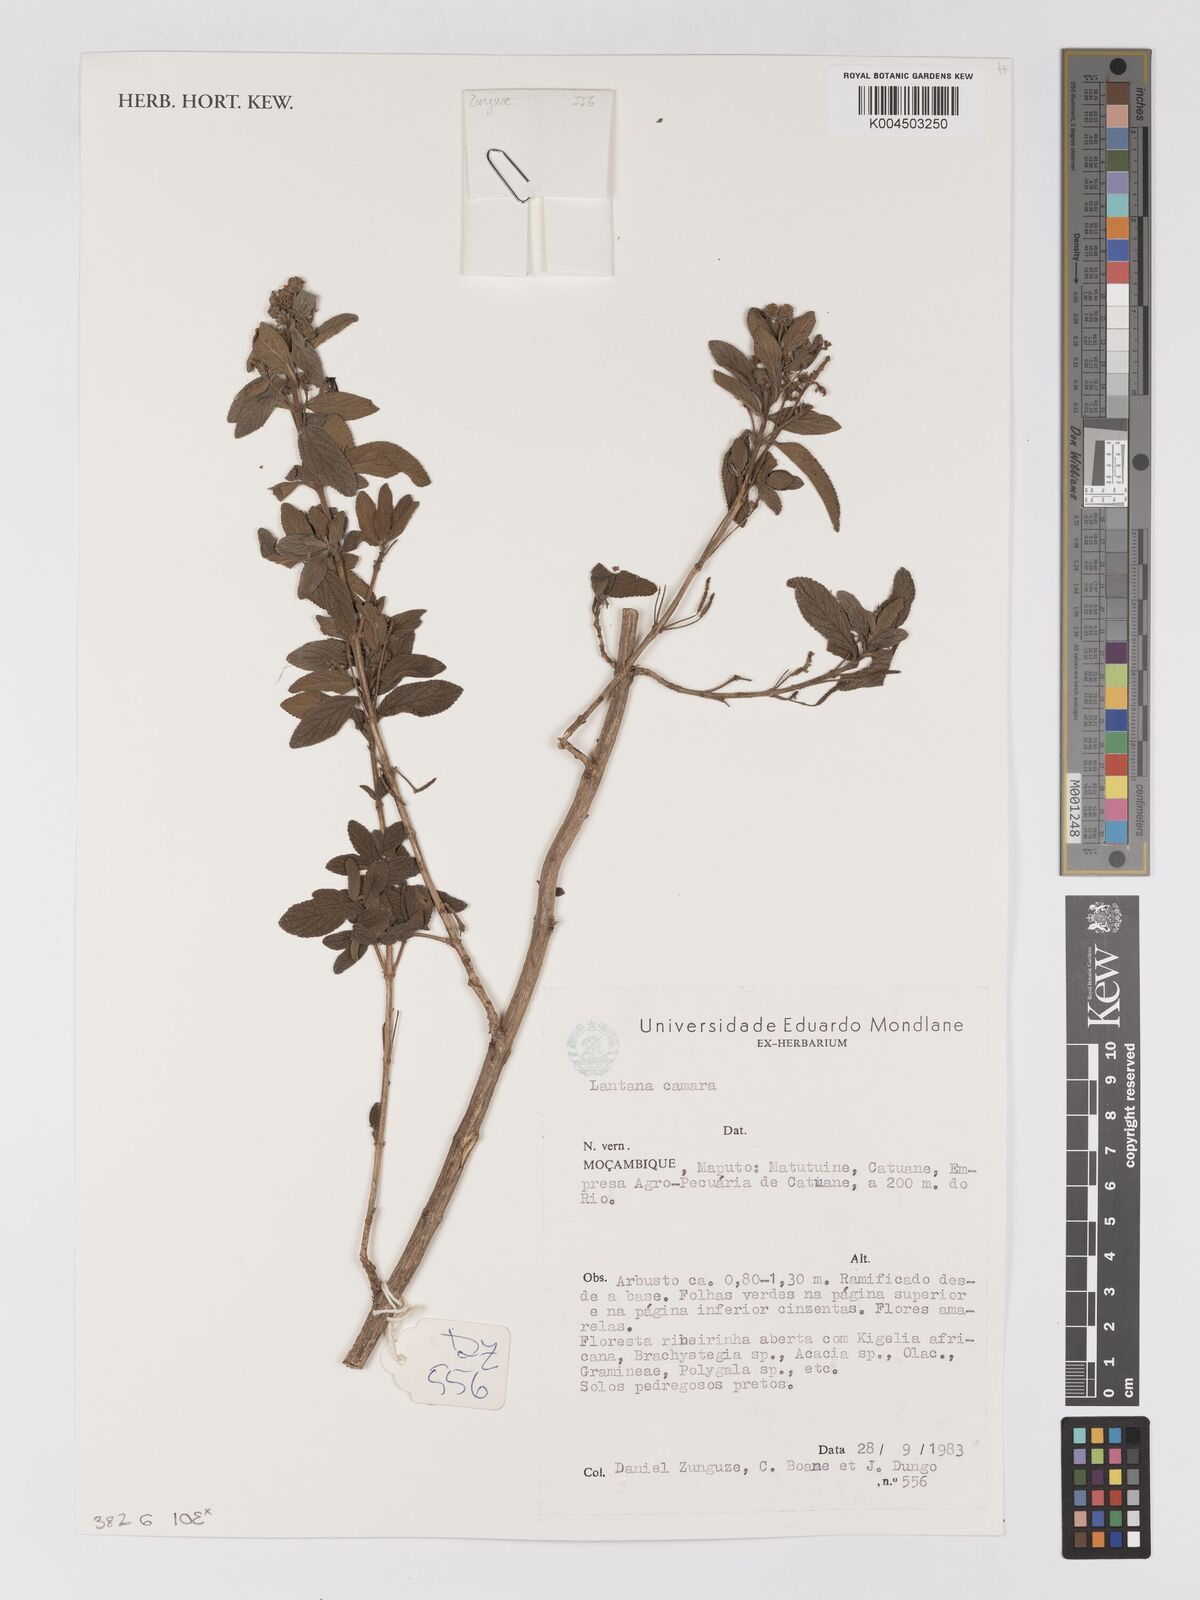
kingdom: Plantae
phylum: Tracheophyta
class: Magnoliopsida
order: Lamiales
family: Verbenaceae
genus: Lantana
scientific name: Lantana camara
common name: Lantana
